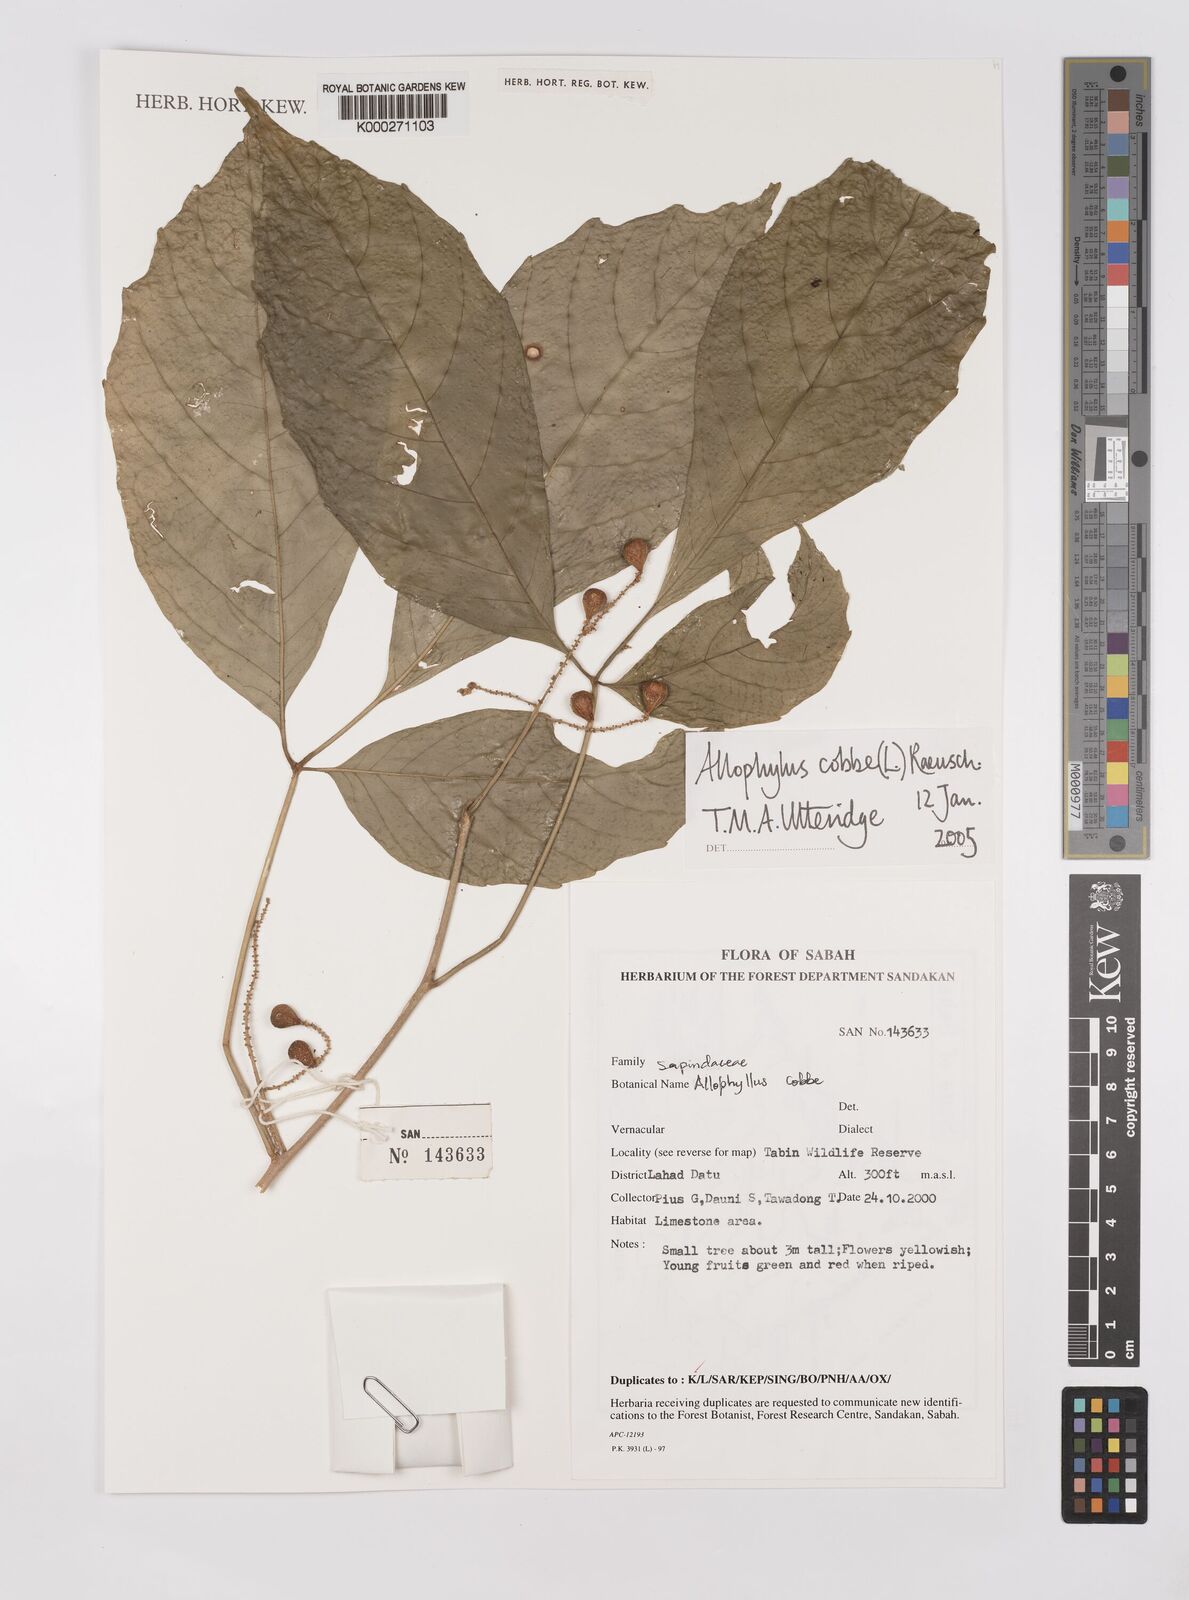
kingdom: Plantae
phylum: Tracheophyta
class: Magnoliopsida
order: Sapindales
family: Sapindaceae
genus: Allophylus
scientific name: Allophylus
